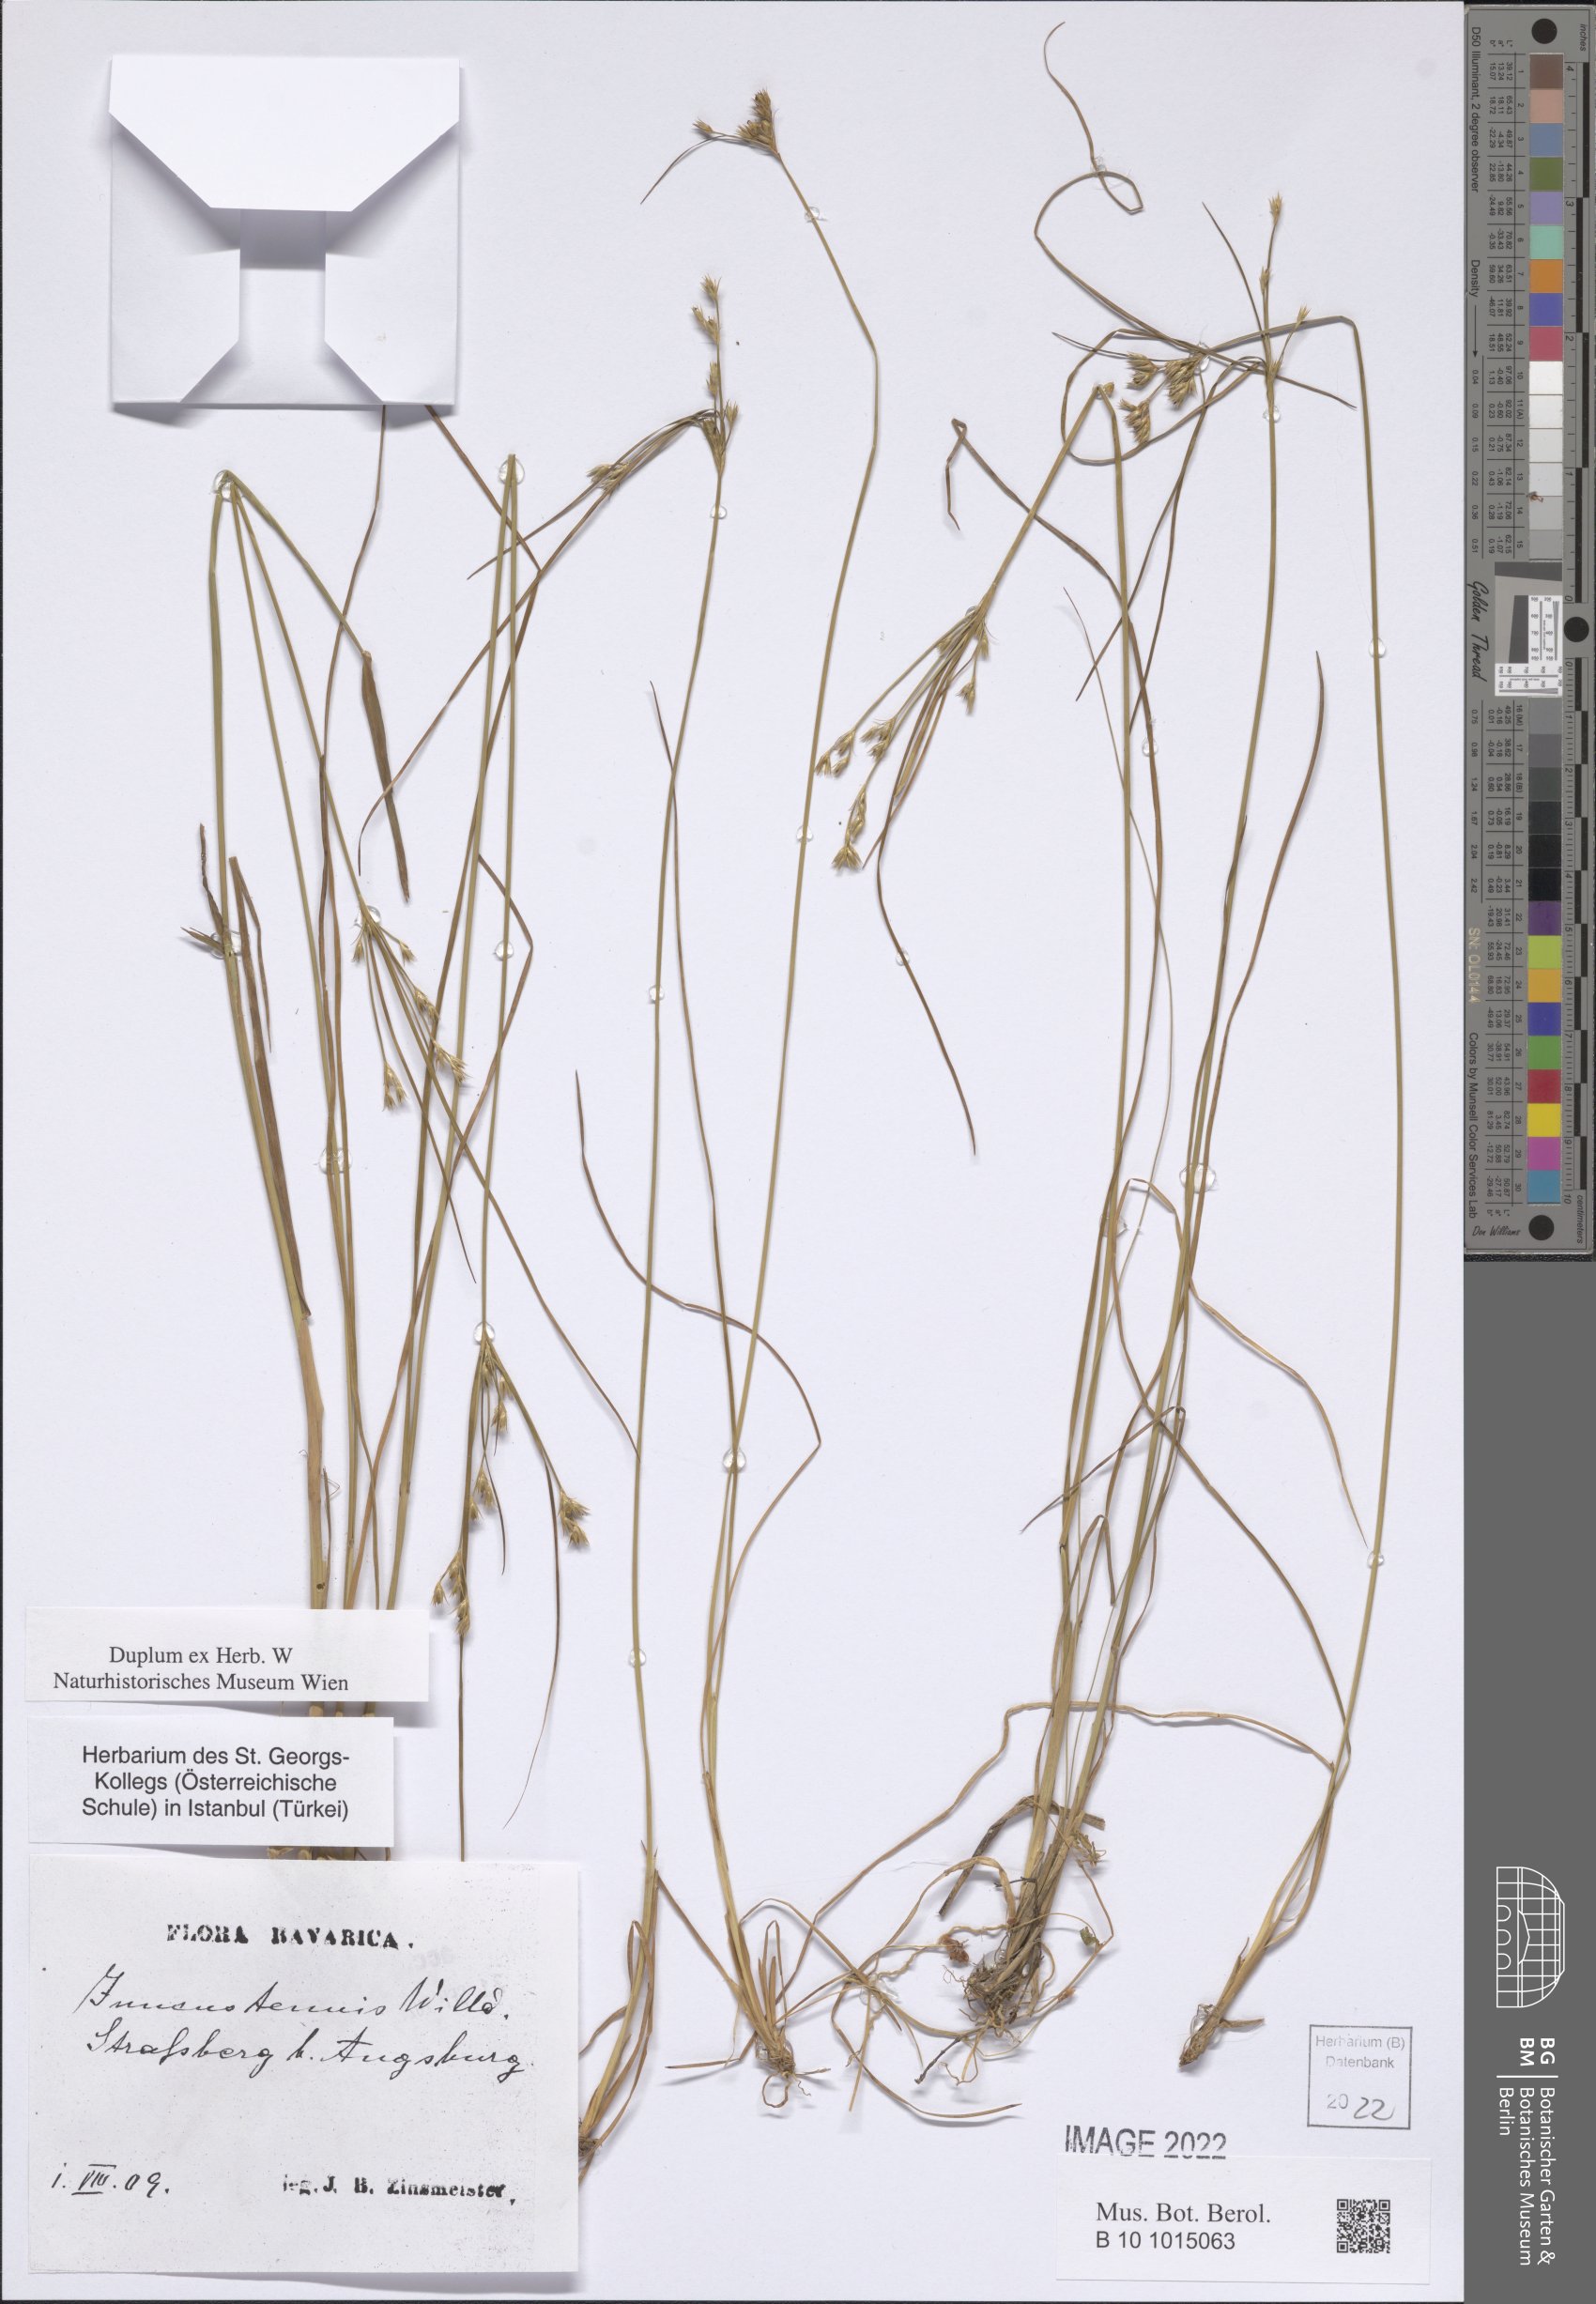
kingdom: Plantae
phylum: Tracheophyta
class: Liliopsida
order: Poales
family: Juncaceae
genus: Juncus
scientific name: Juncus tenuis
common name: Slender rush
